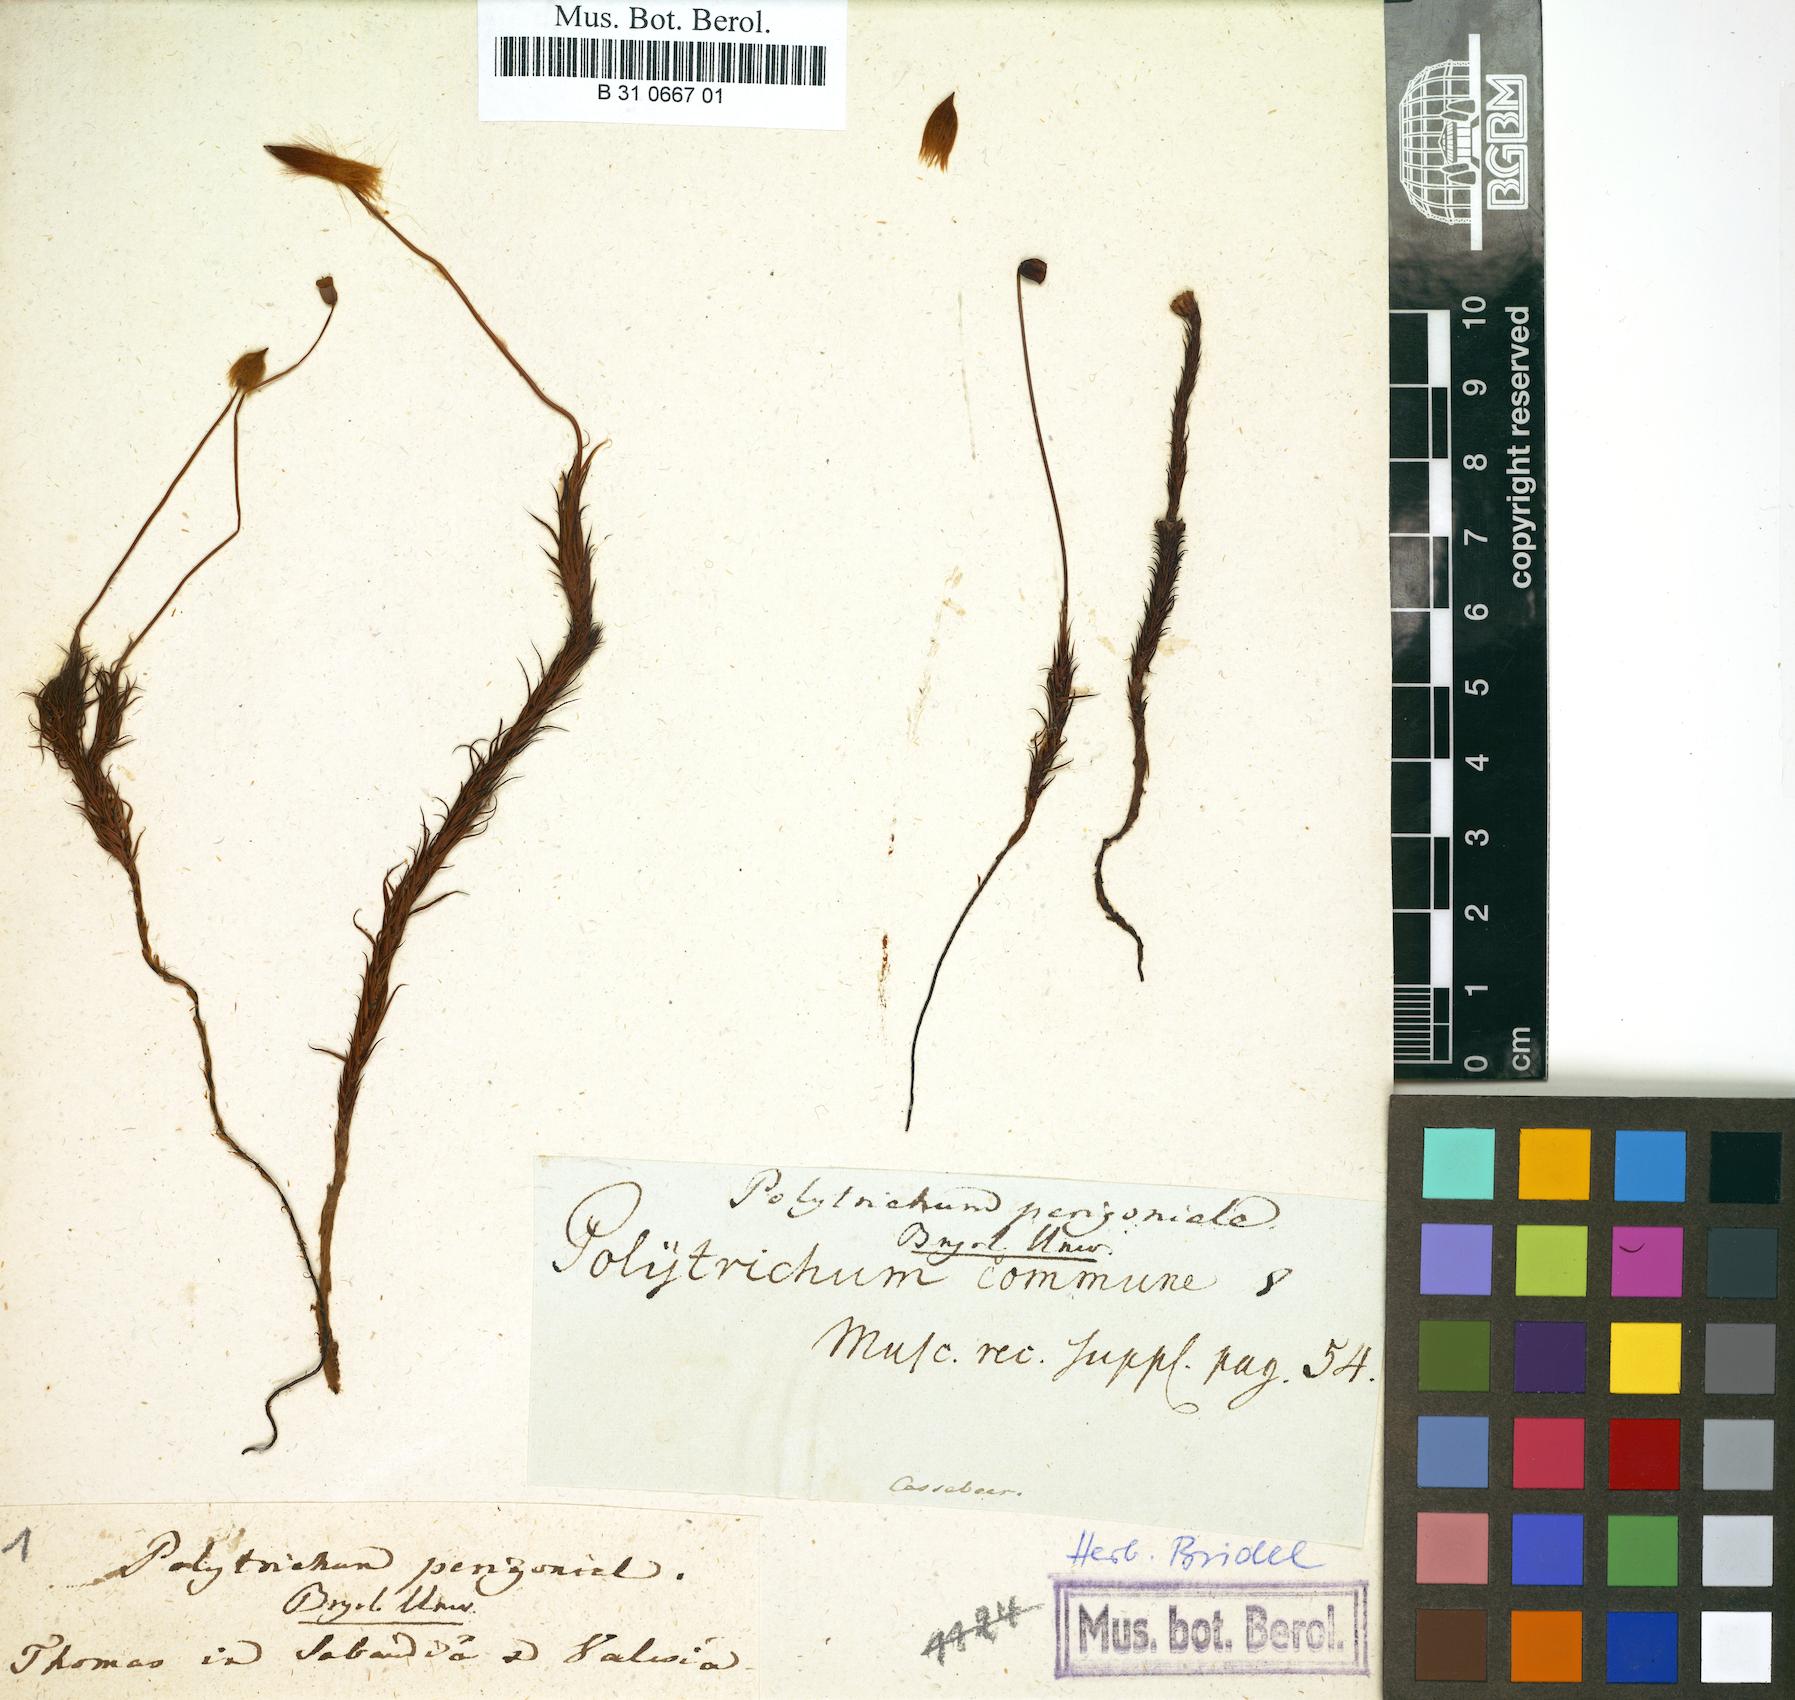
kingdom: Plantae
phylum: Bryophyta
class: Polytrichopsida
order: Polytrichales
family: Polytrichaceae
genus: Polytrichum
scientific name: Polytrichum perigoniale
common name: Dense haircap moss
